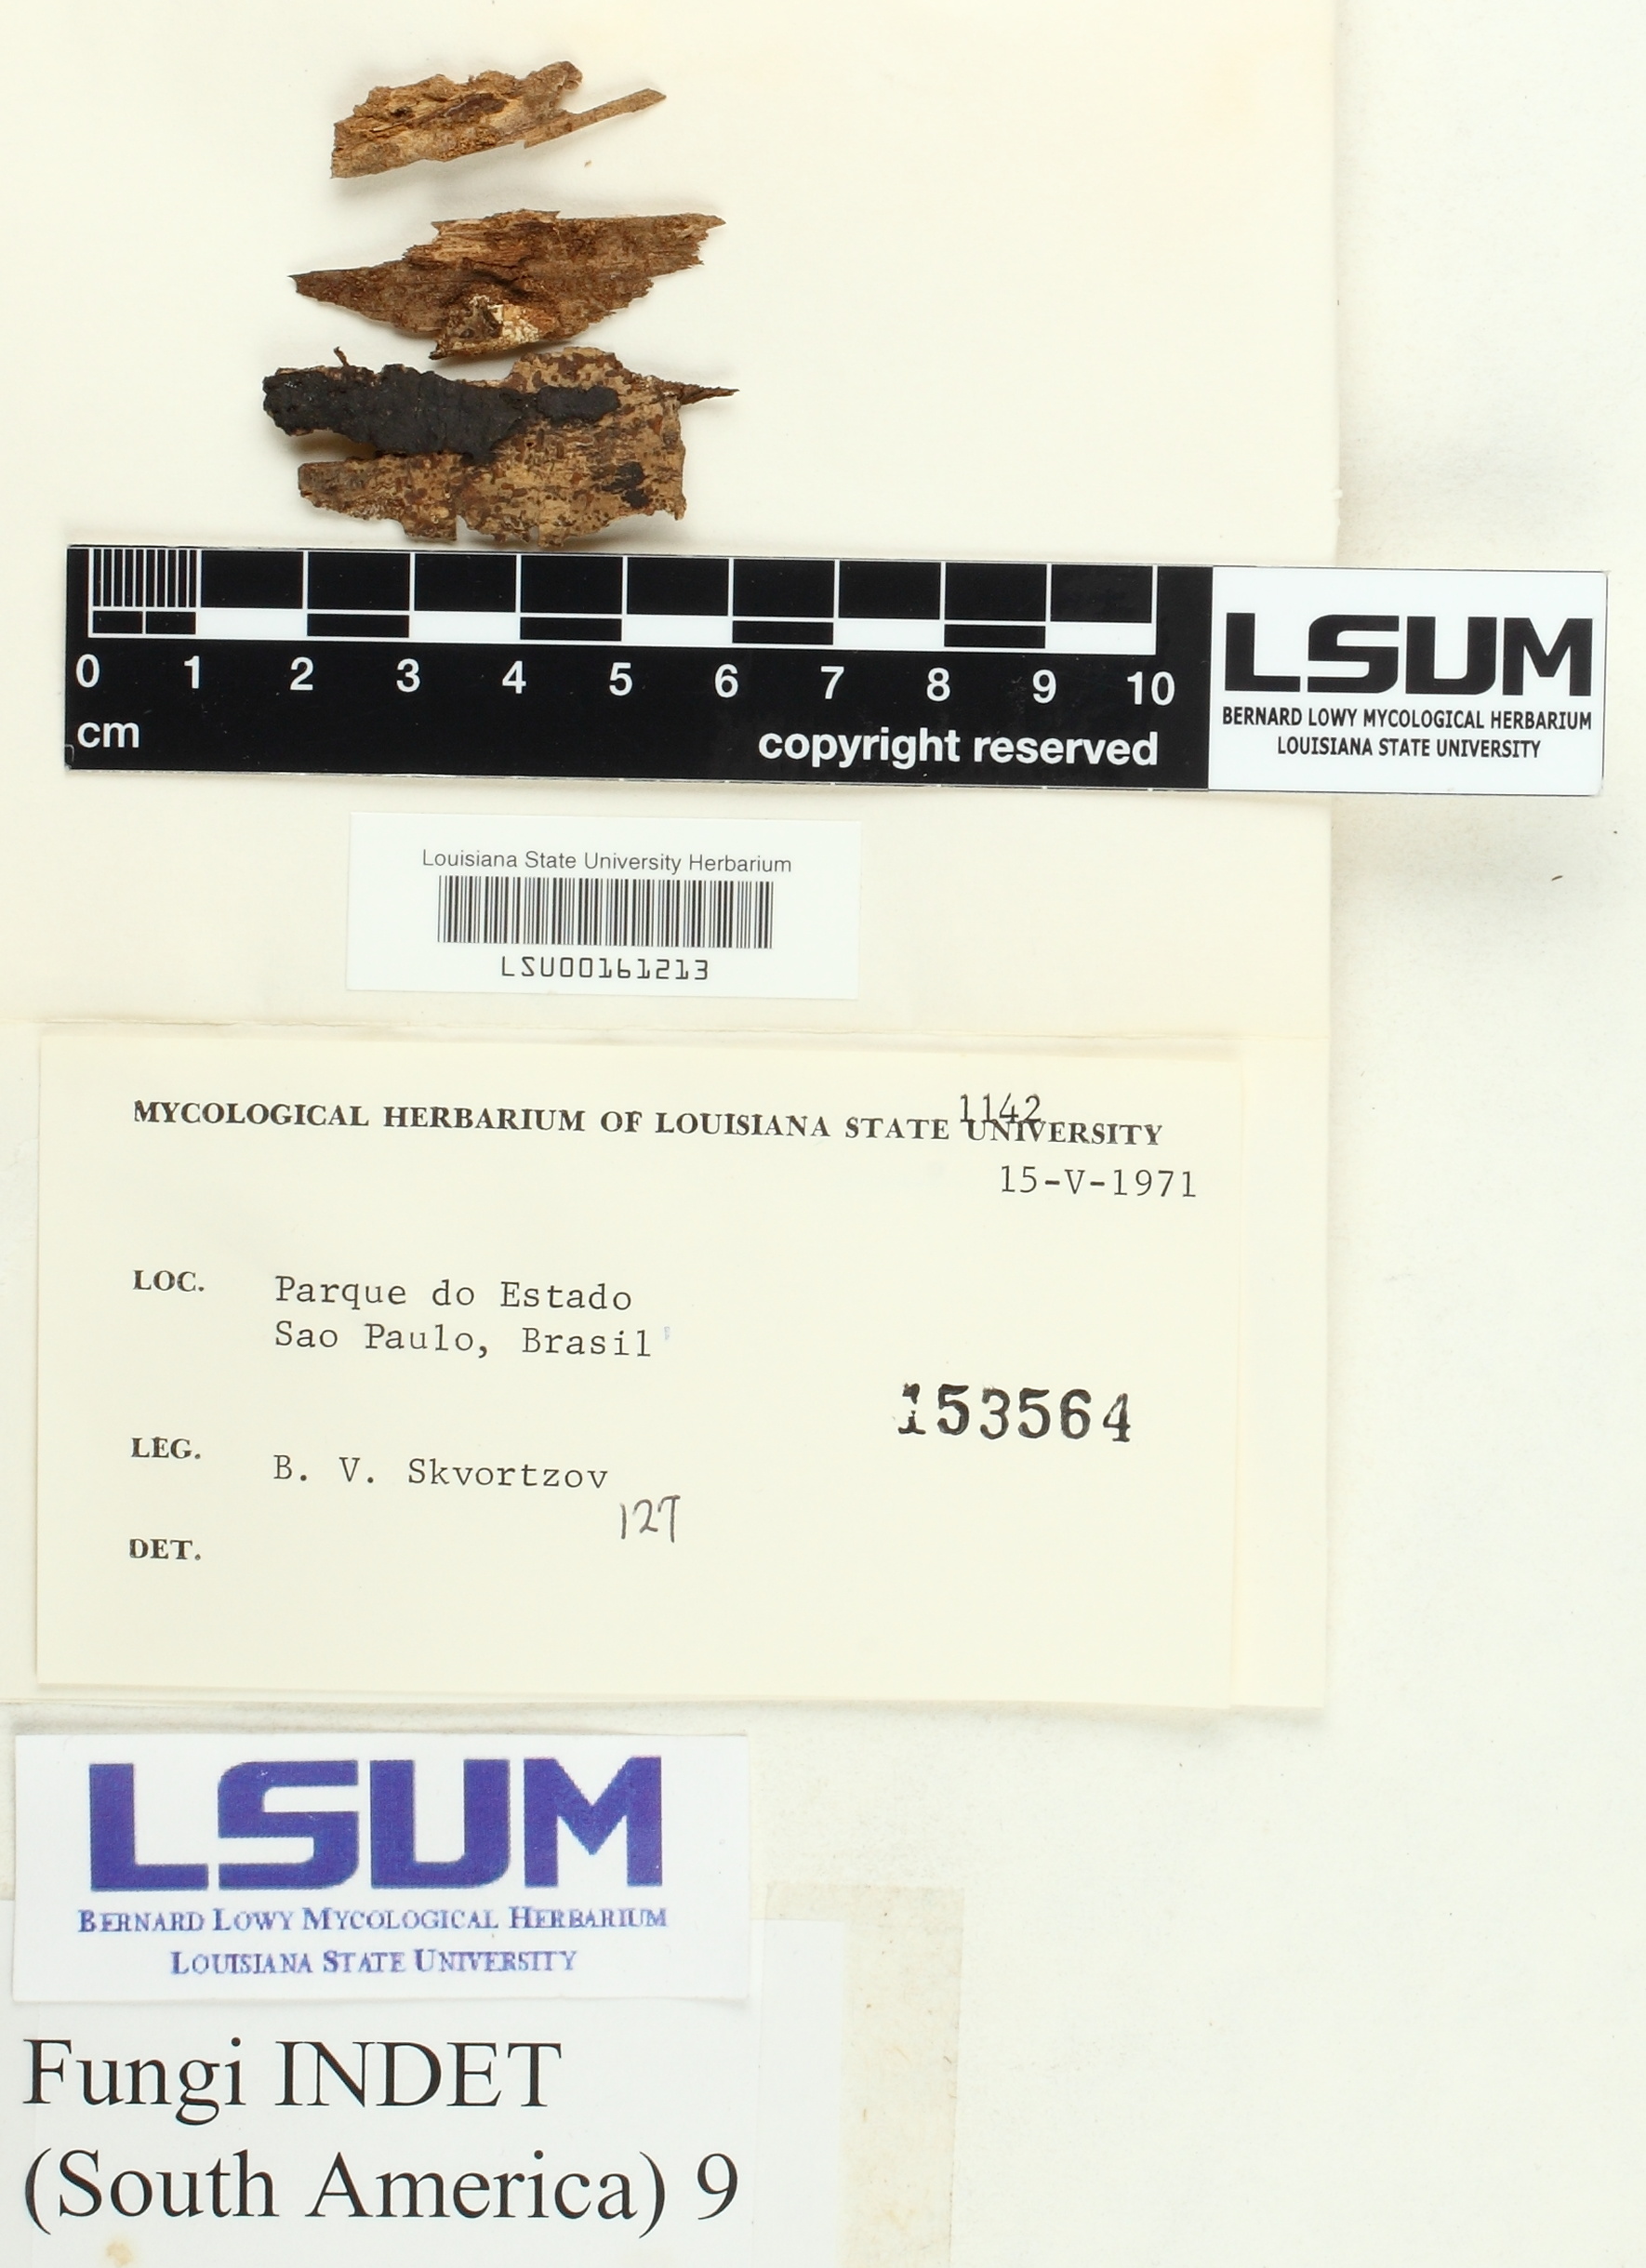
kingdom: Fungi
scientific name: Fungi
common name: Fungi
